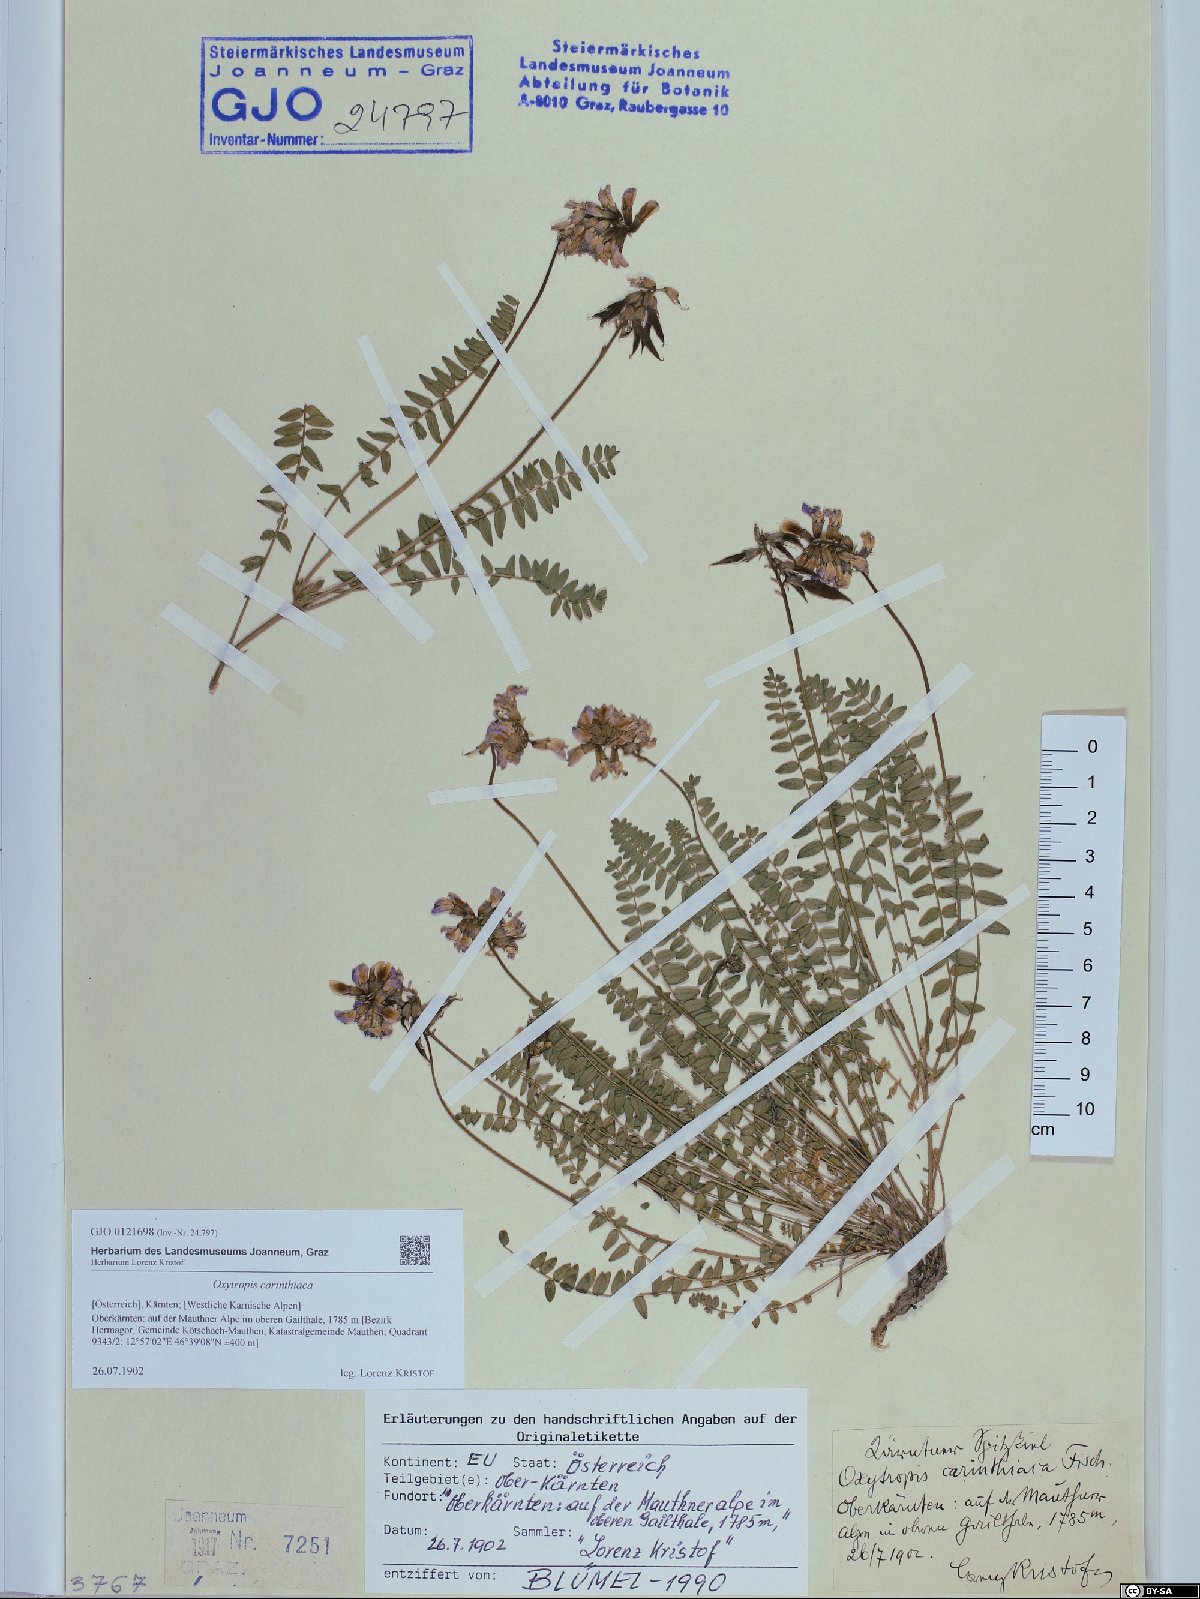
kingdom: Plantae
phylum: Tracheophyta
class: Magnoliopsida
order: Fabales
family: Fabaceae
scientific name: Fabaceae
